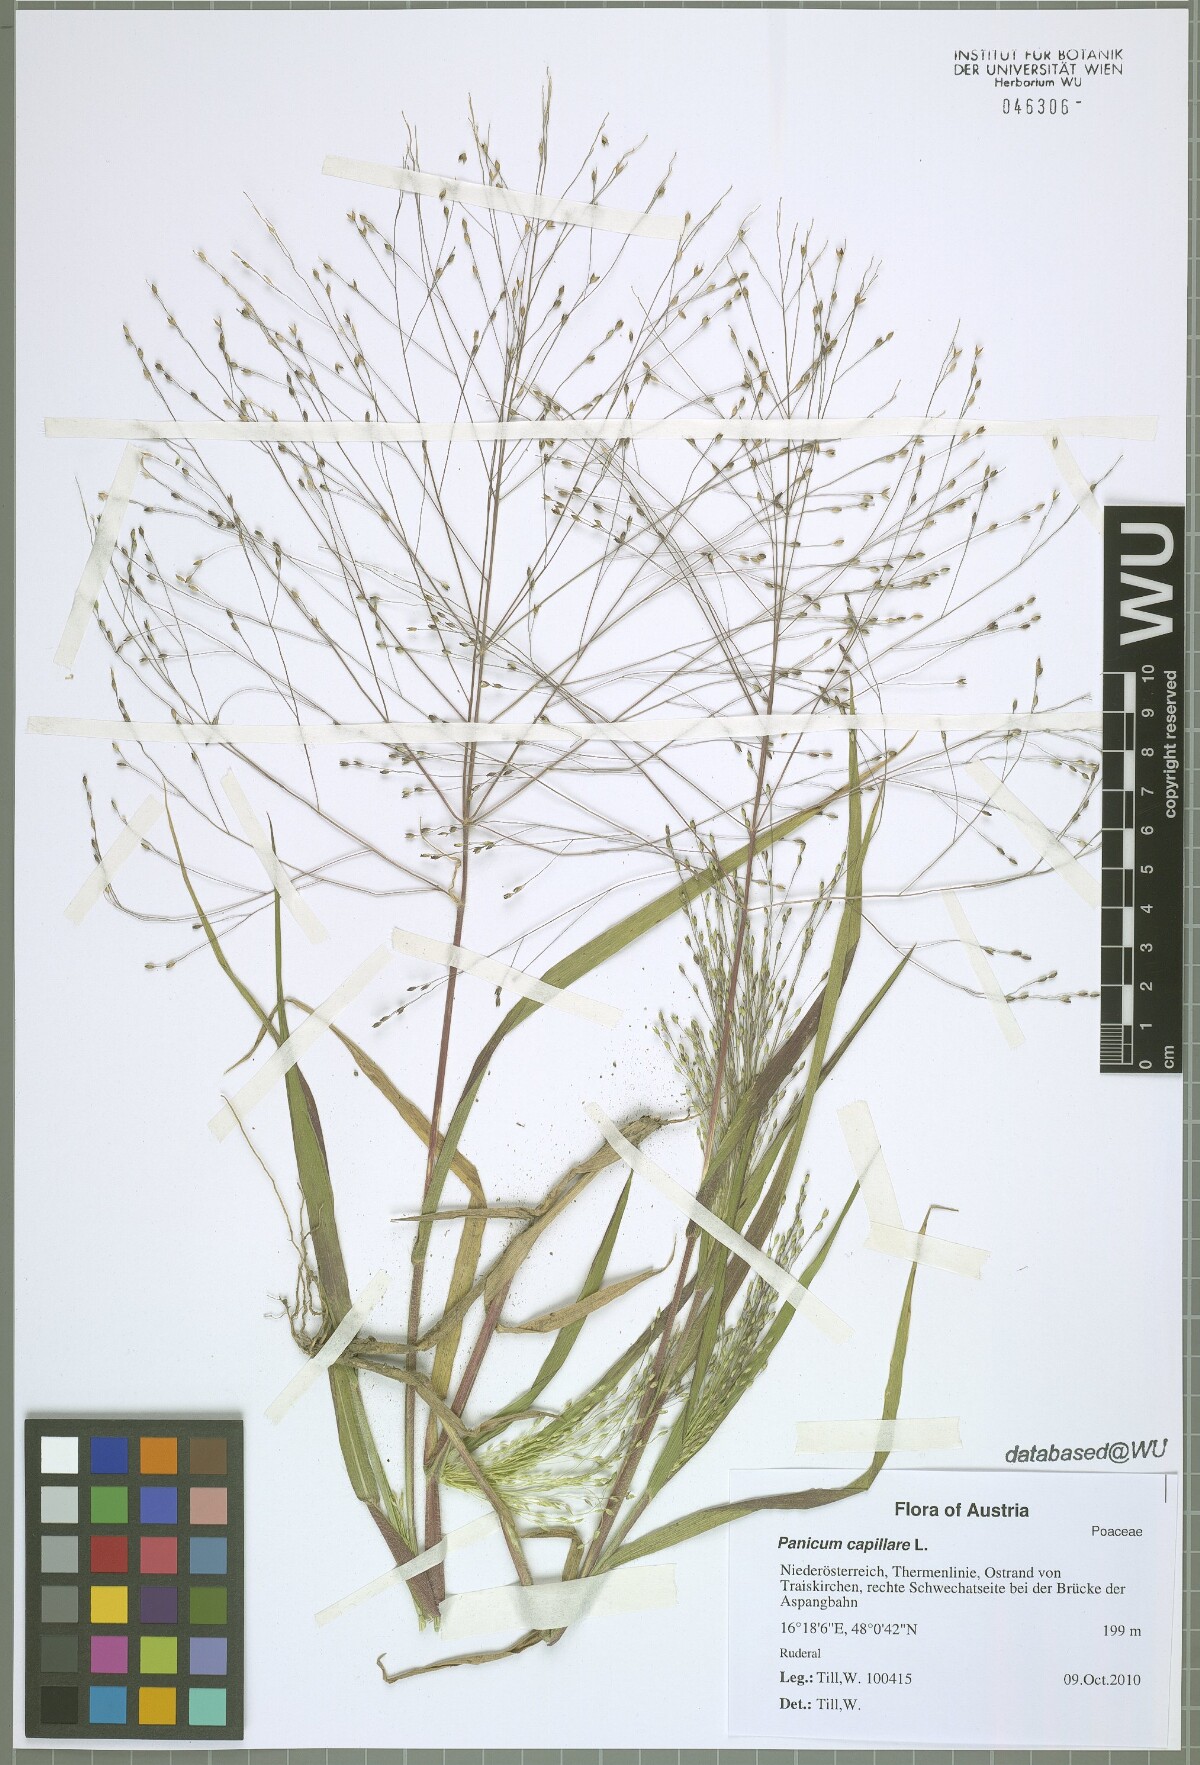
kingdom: Plantae
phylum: Tracheophyta
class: Liliopsida
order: Poales
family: Poaceae
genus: Panicum
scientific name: Panicum capillare
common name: Witch-grass
